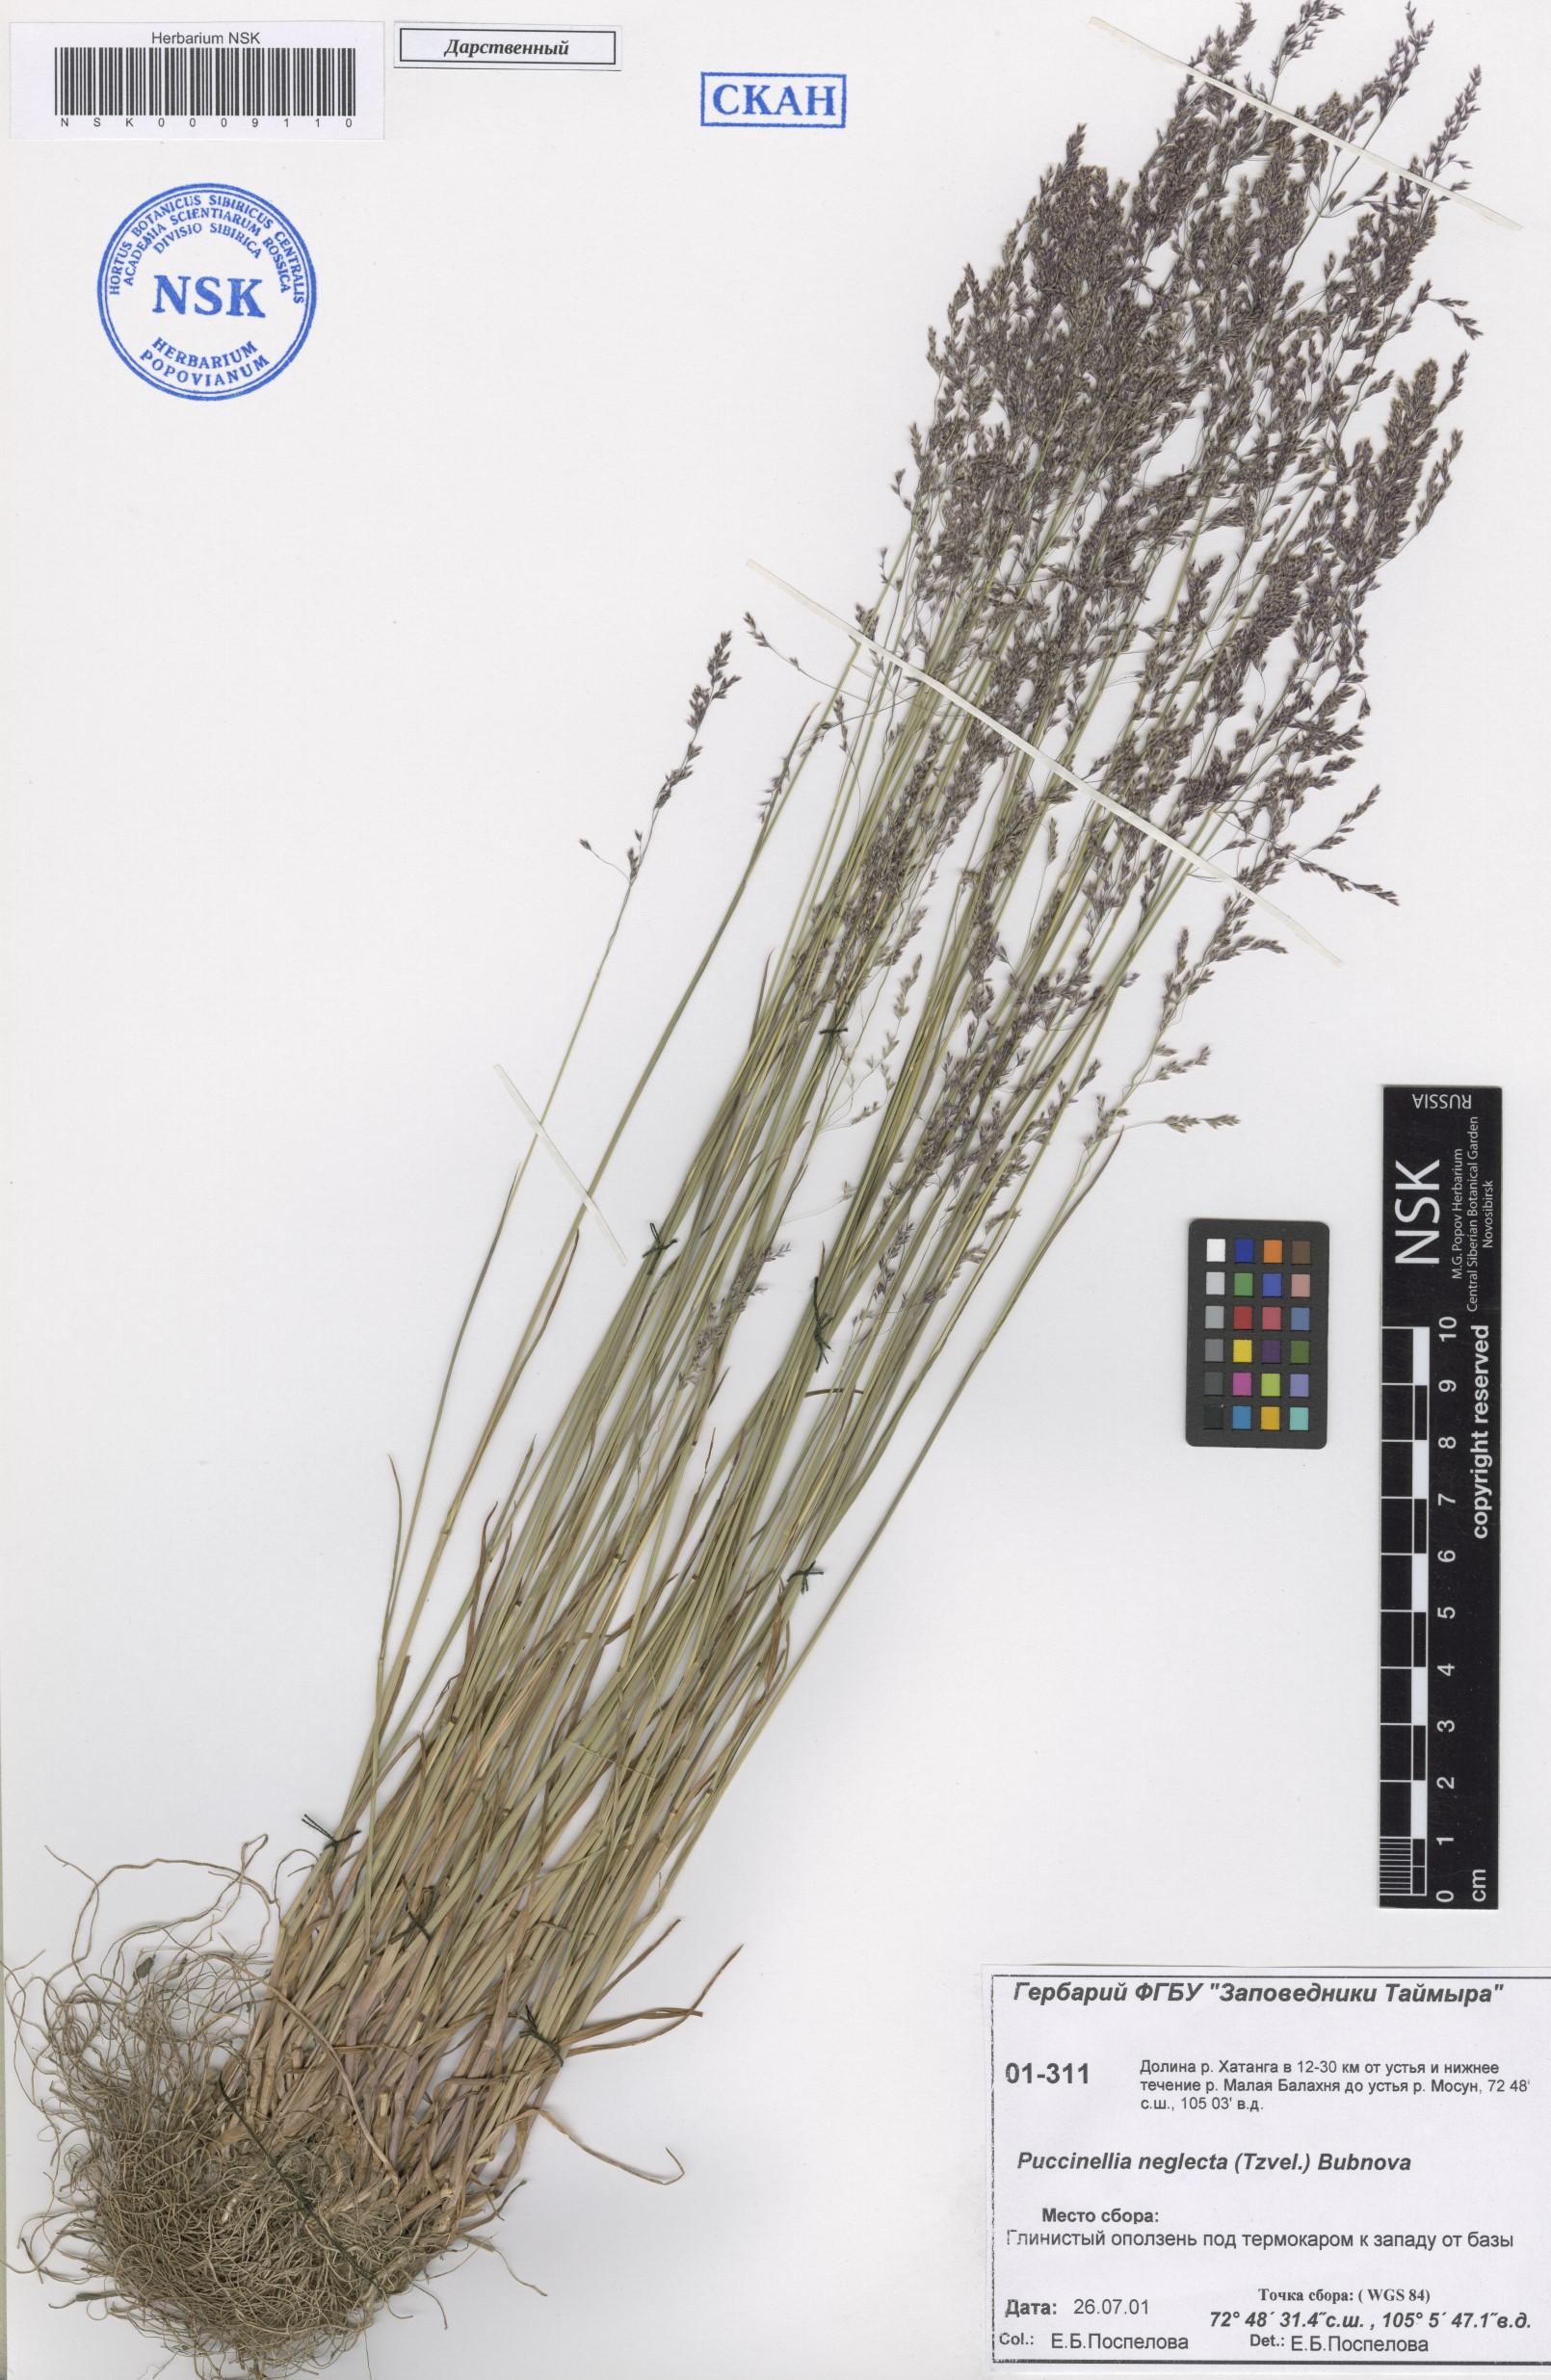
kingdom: Plantae
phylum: Tracheophyta
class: Liliopsida
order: Poales
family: Poaceae
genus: Puccinellia
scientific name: Puccinellia nuttalliana
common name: Nuttall's alkali grass
